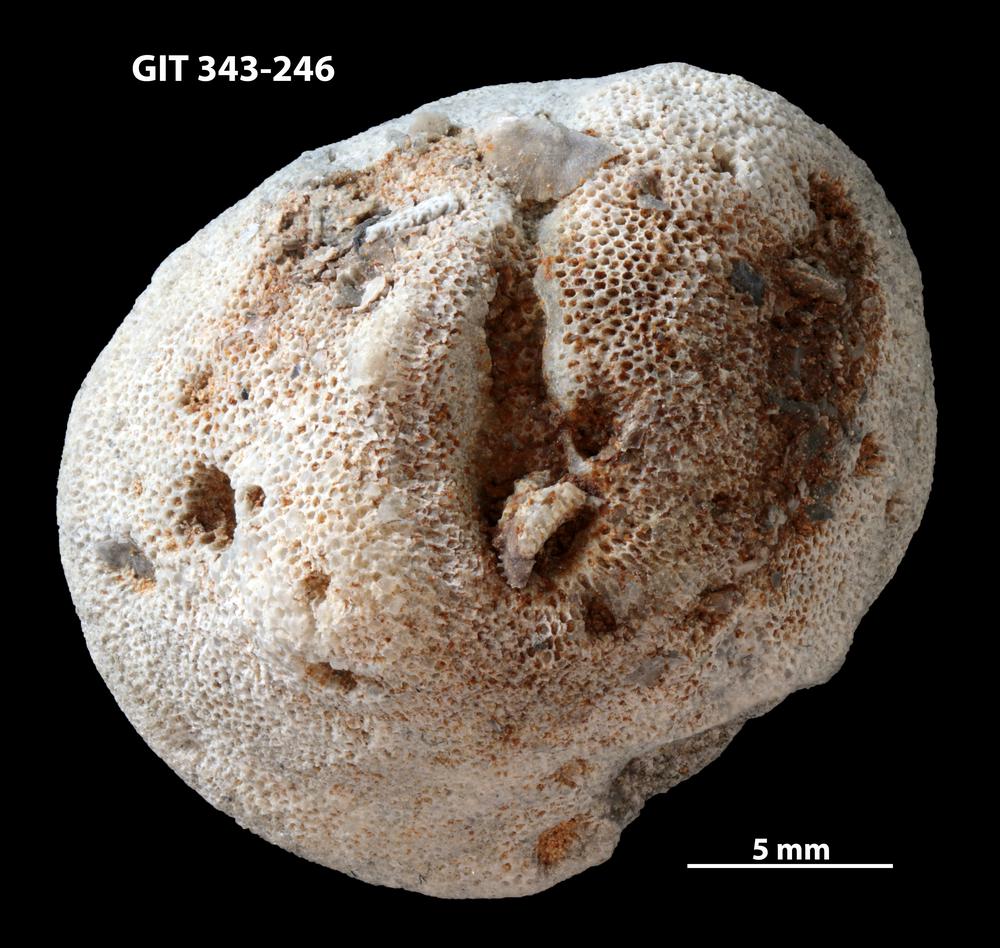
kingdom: Animalia
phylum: Bryozoa
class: Stenolaemata
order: Trepostomatida
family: Monticuliporidae
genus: Mesotrypa
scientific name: Mesotrypa excentrica
